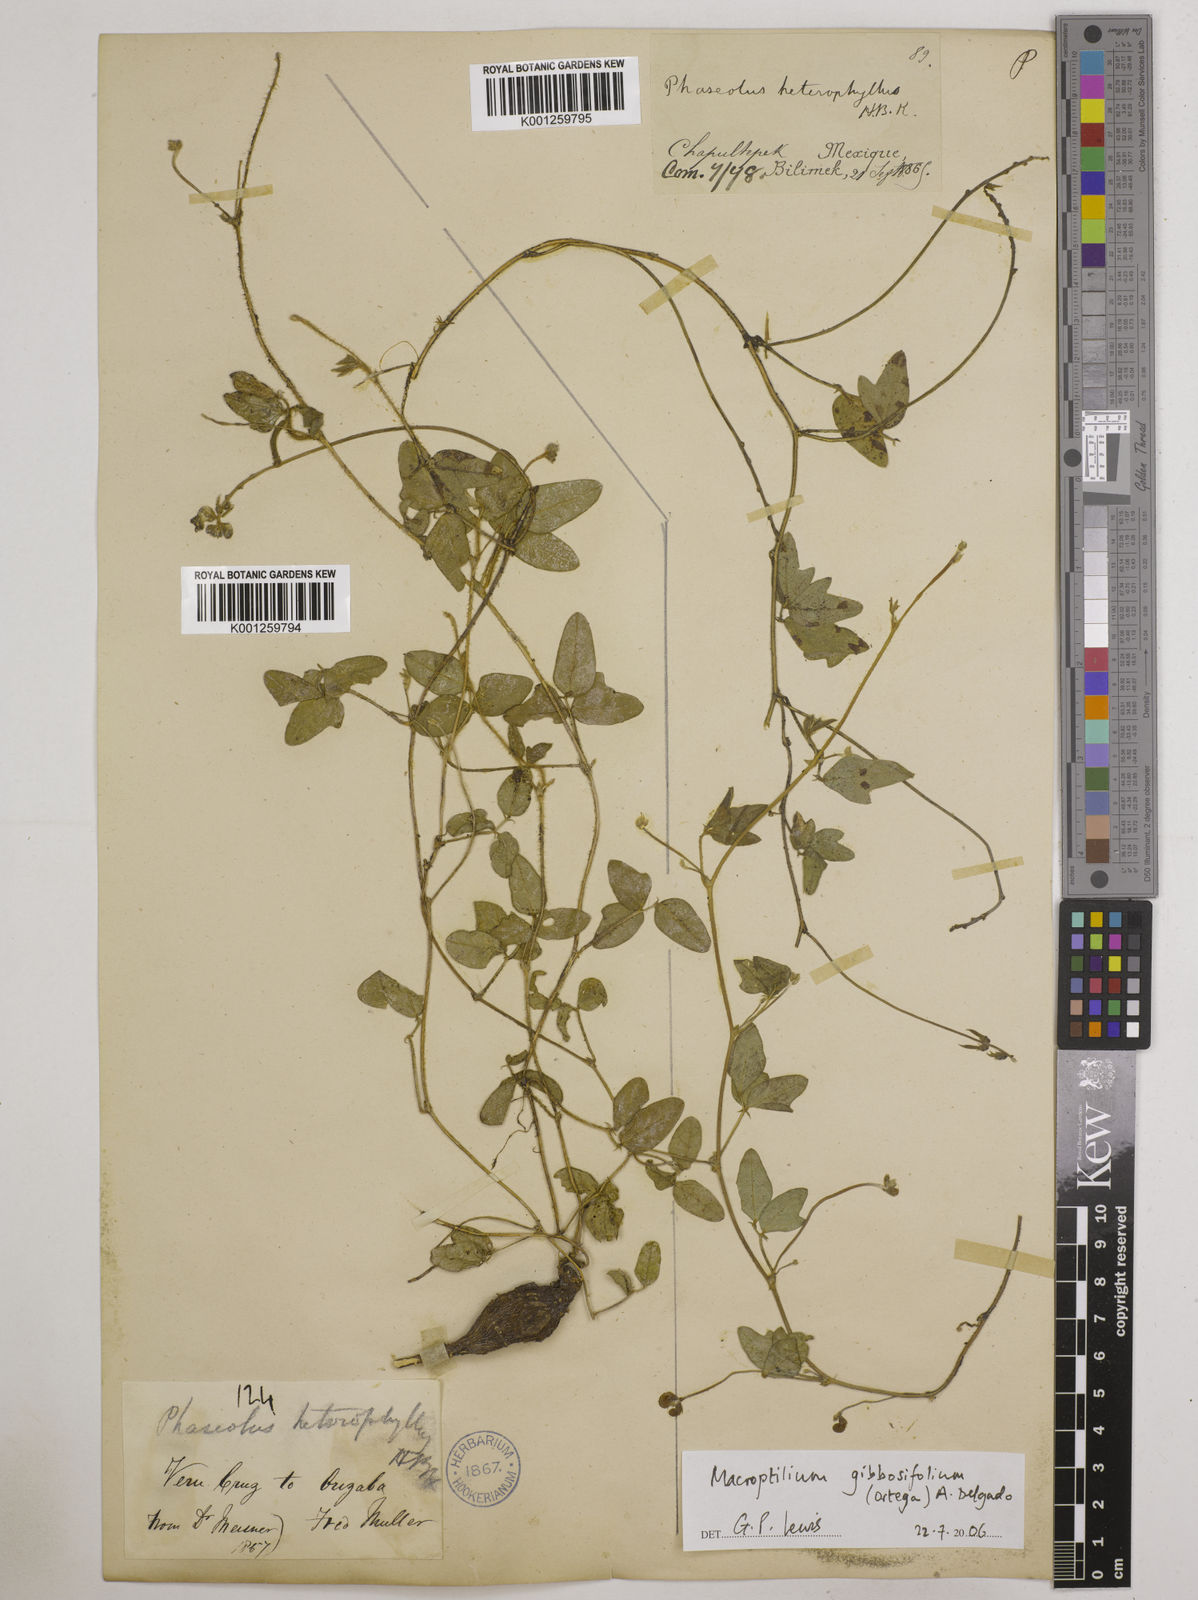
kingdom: Plantae
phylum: Tracheophyta
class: Magnoliopsida
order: Fabales
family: Fabaceae
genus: Macroptilium
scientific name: Macroptilium gibbosifolium
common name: Variableleaf bushbean
